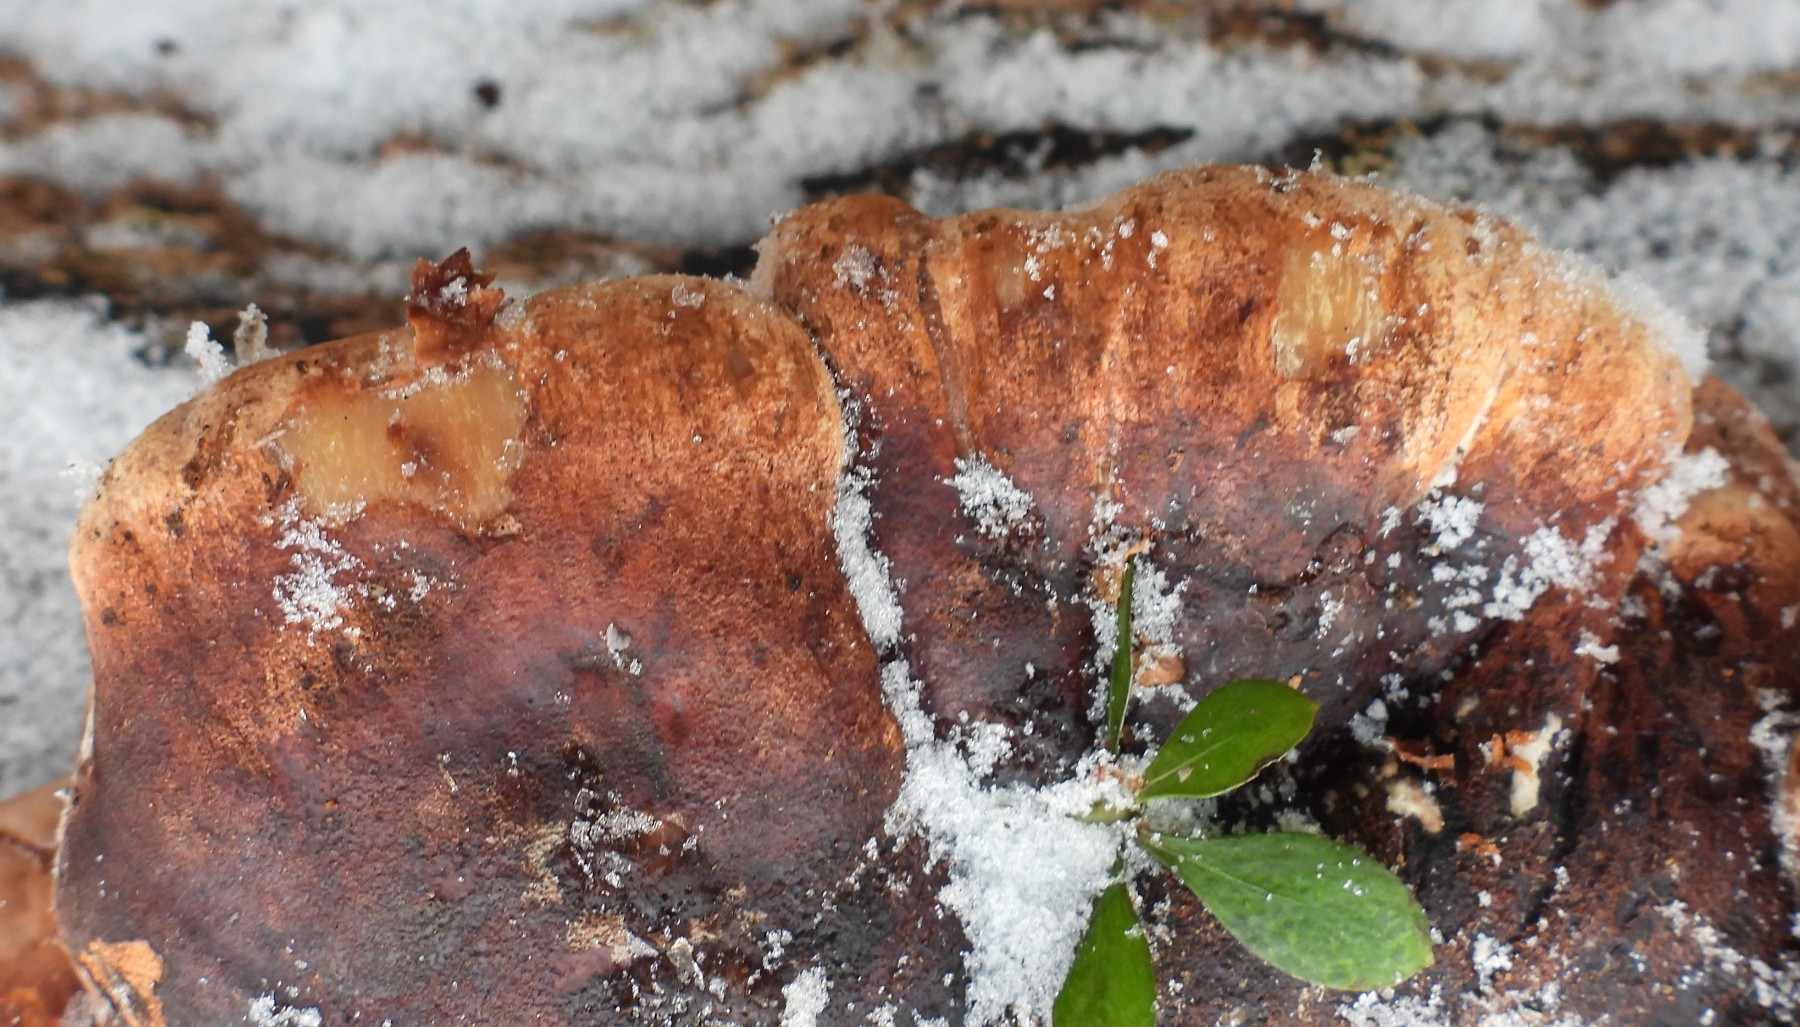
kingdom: Fungi
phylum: Basidiomycota
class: Agaricomycetes
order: Polyporales
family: Ischnodermataceae
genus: Ischnoderma
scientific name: Ischnoderma resinosum
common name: løv-tjæreporesvamp
